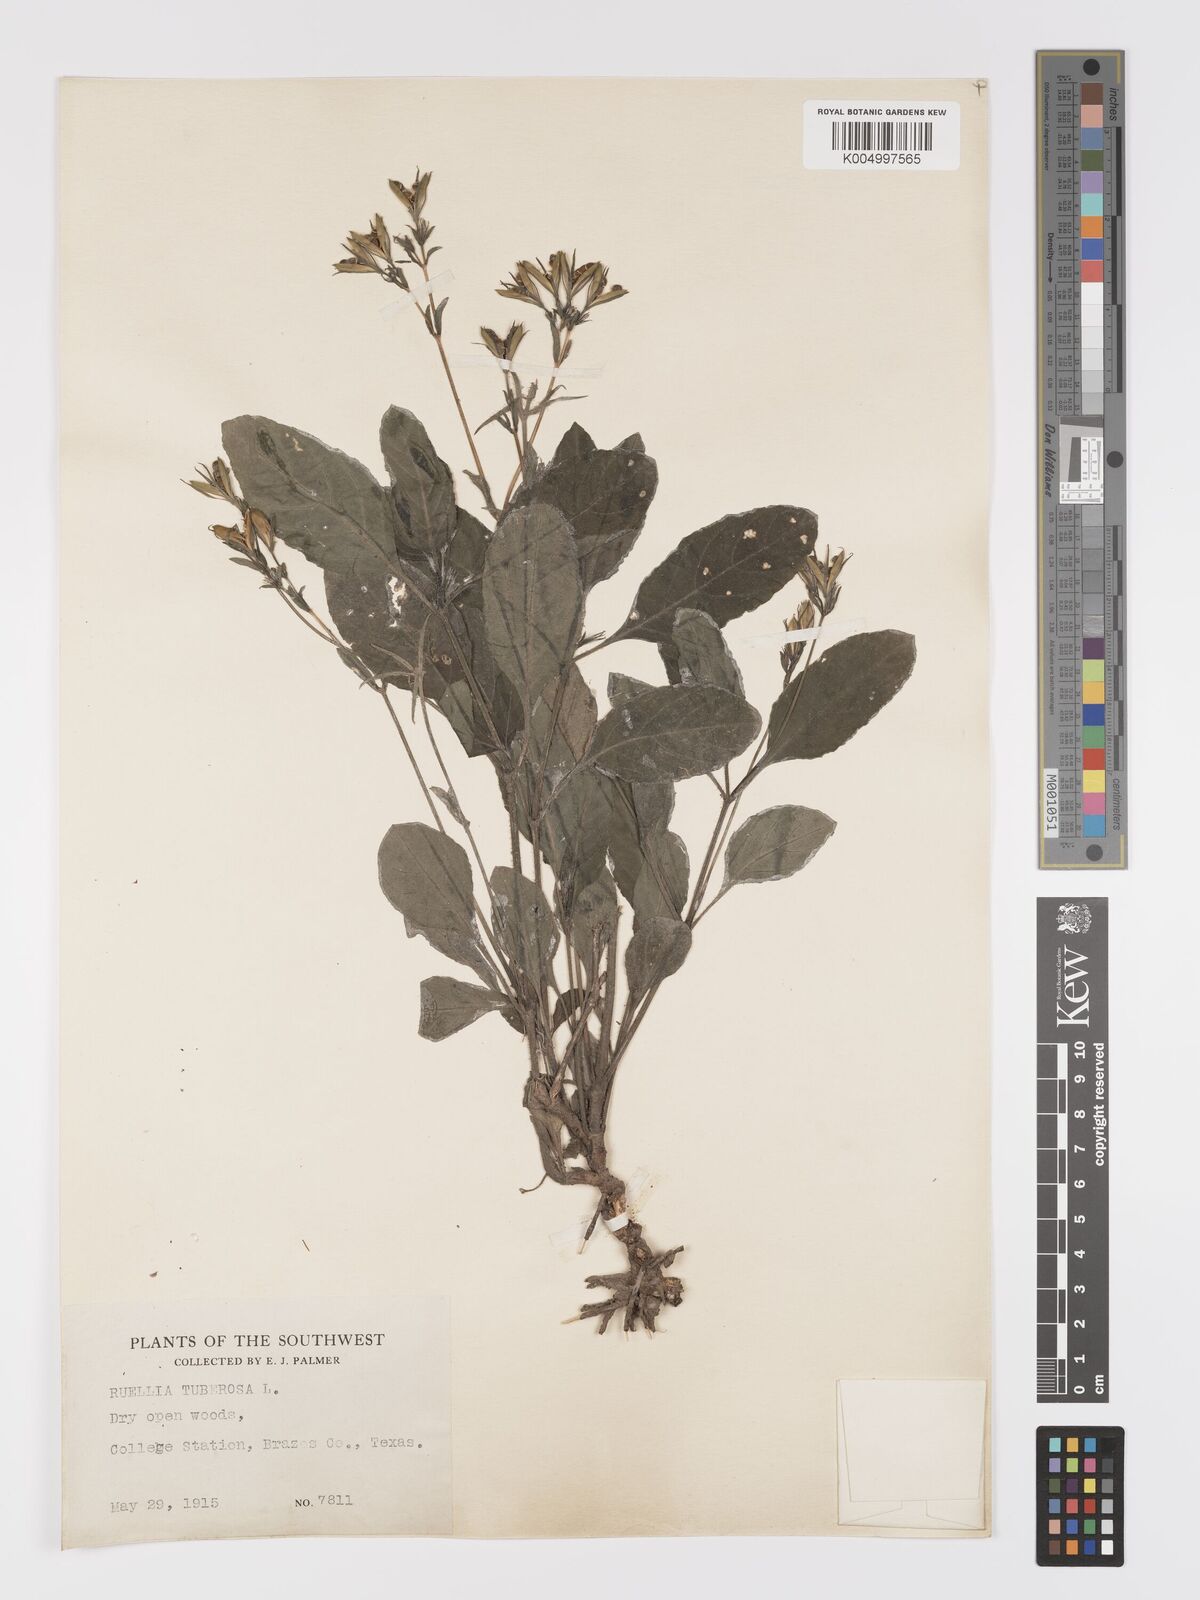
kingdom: Plantae
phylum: Tracheophyta
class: Magnoliopsida
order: Lamiales
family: Acanthaceae
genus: Ruellia
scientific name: Ruellia tuberosa
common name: Devil's bit
